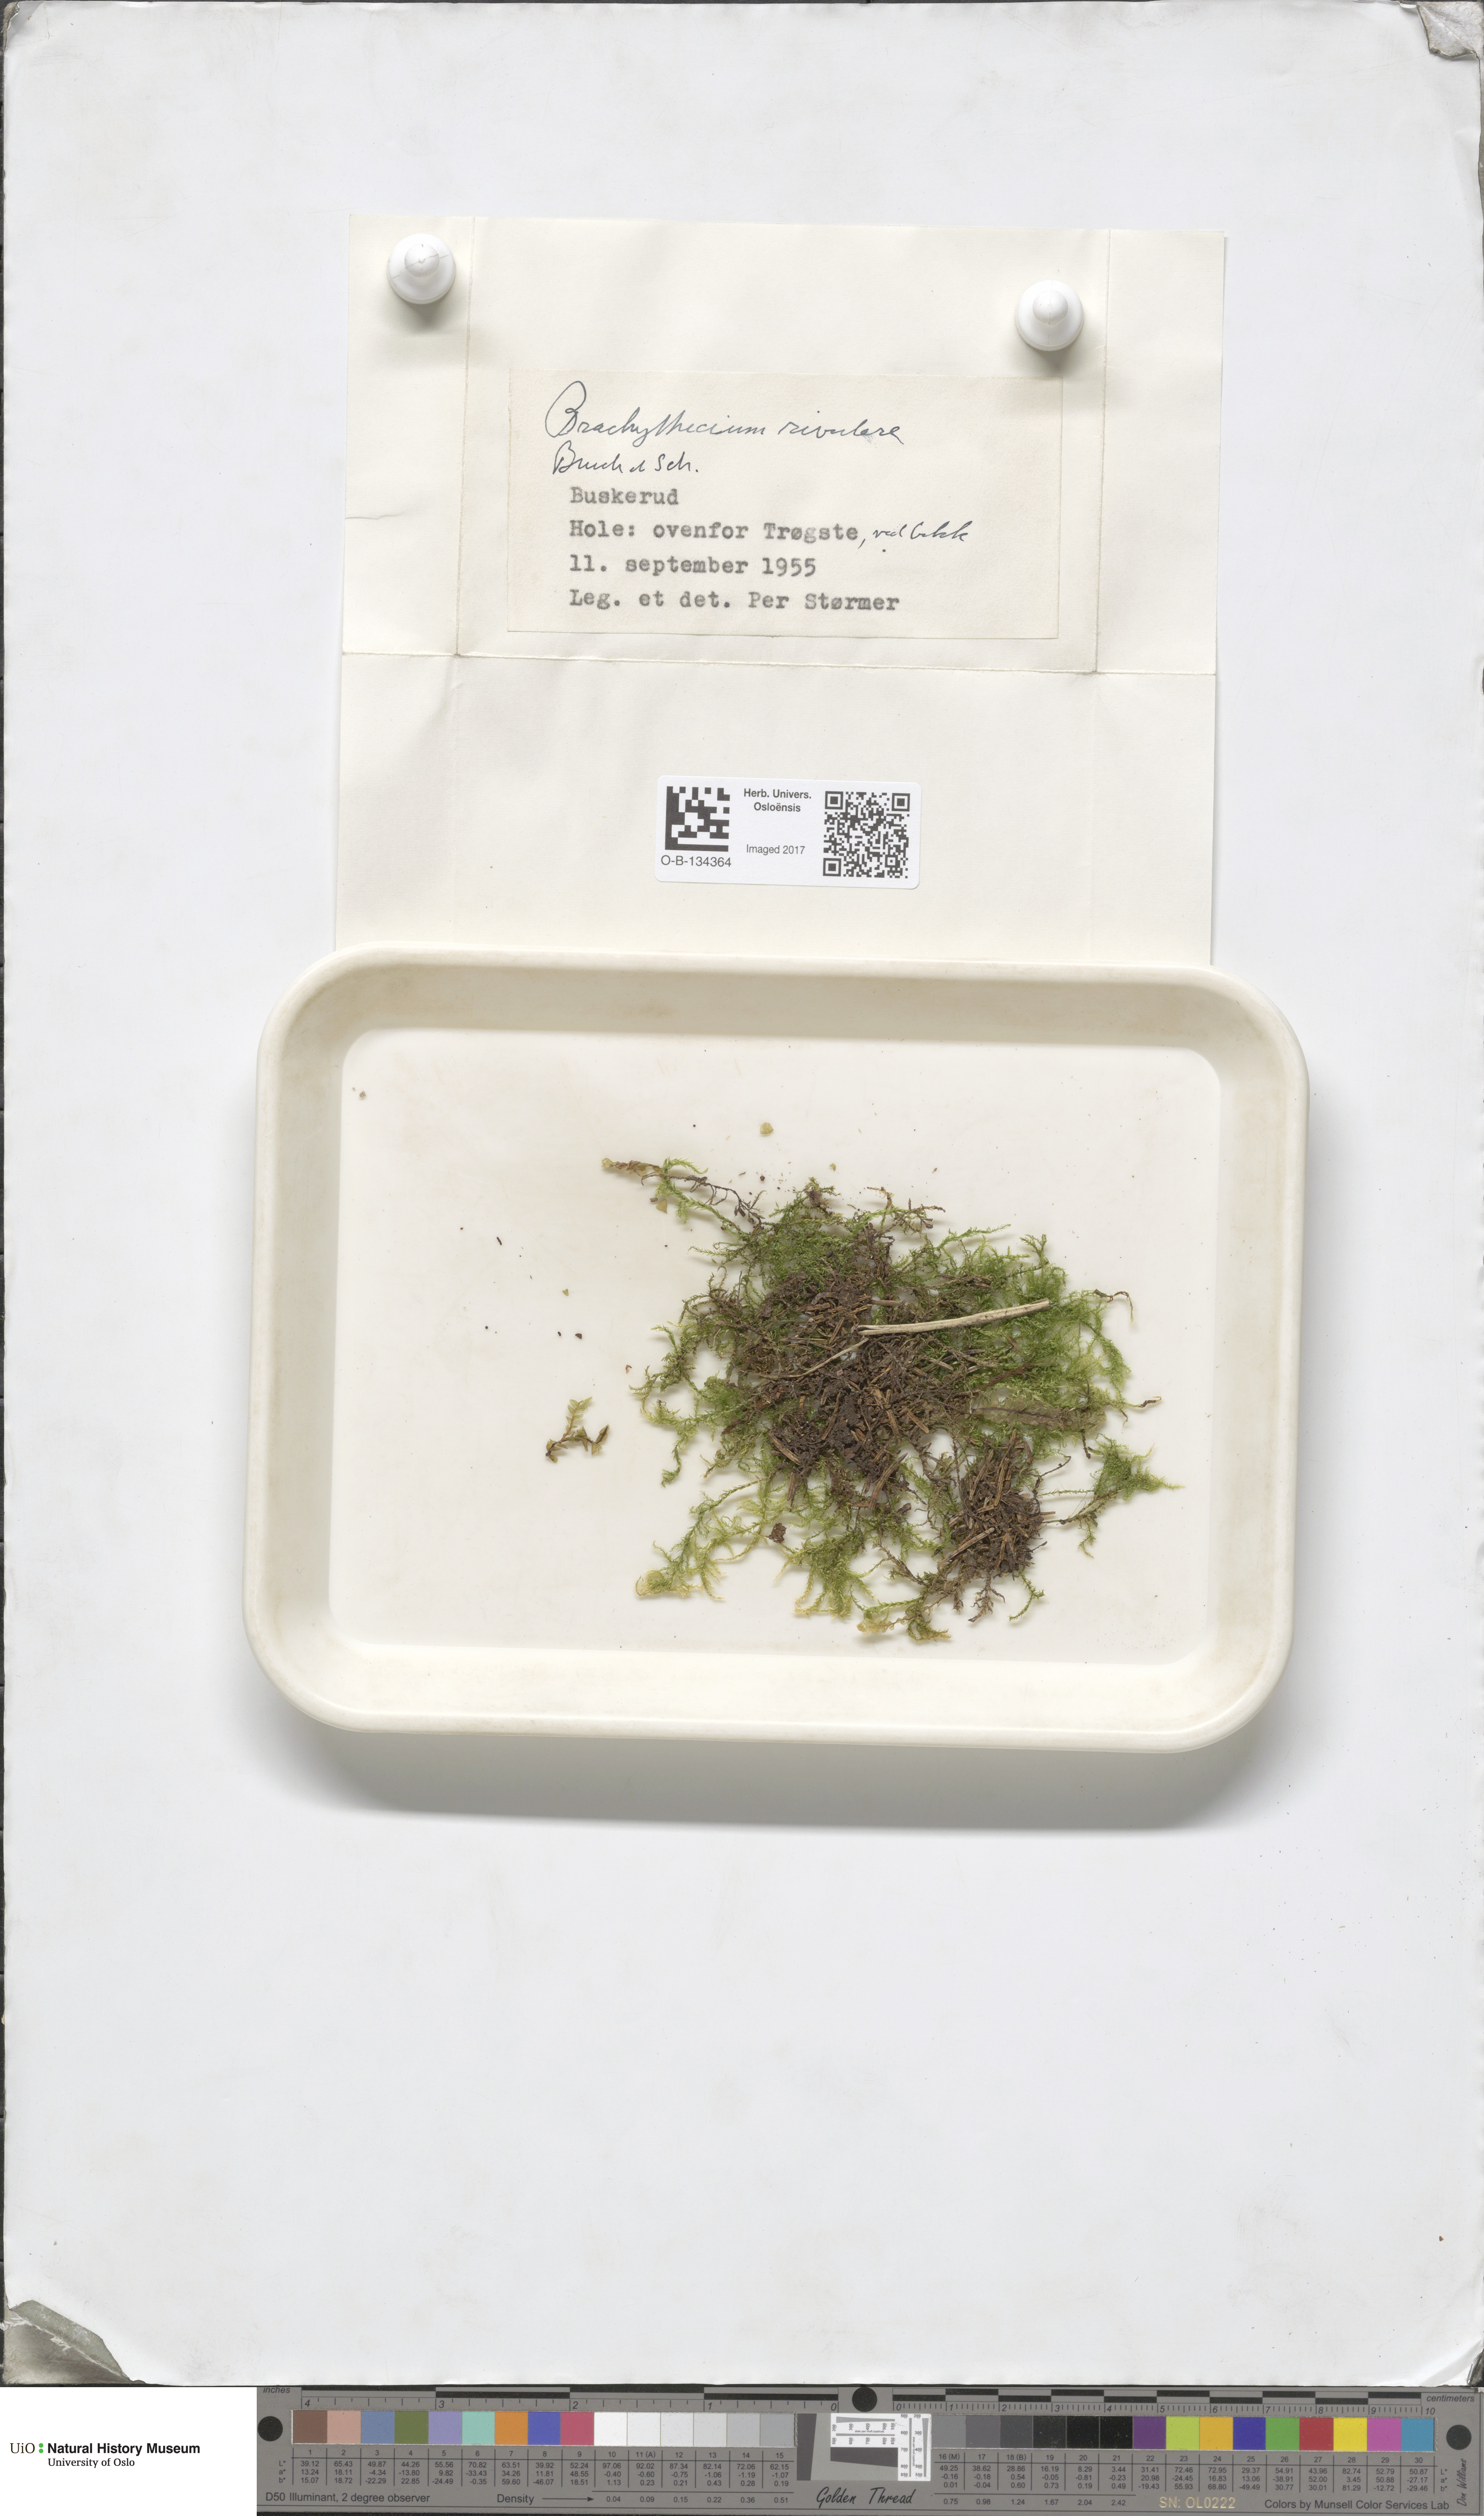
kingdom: Plantae
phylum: Bryophyta
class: Bryopsida
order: Hypnales
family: Brachytheciaceae
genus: Brachythecium
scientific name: Brachythecium rivulare
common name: River ragged moss
